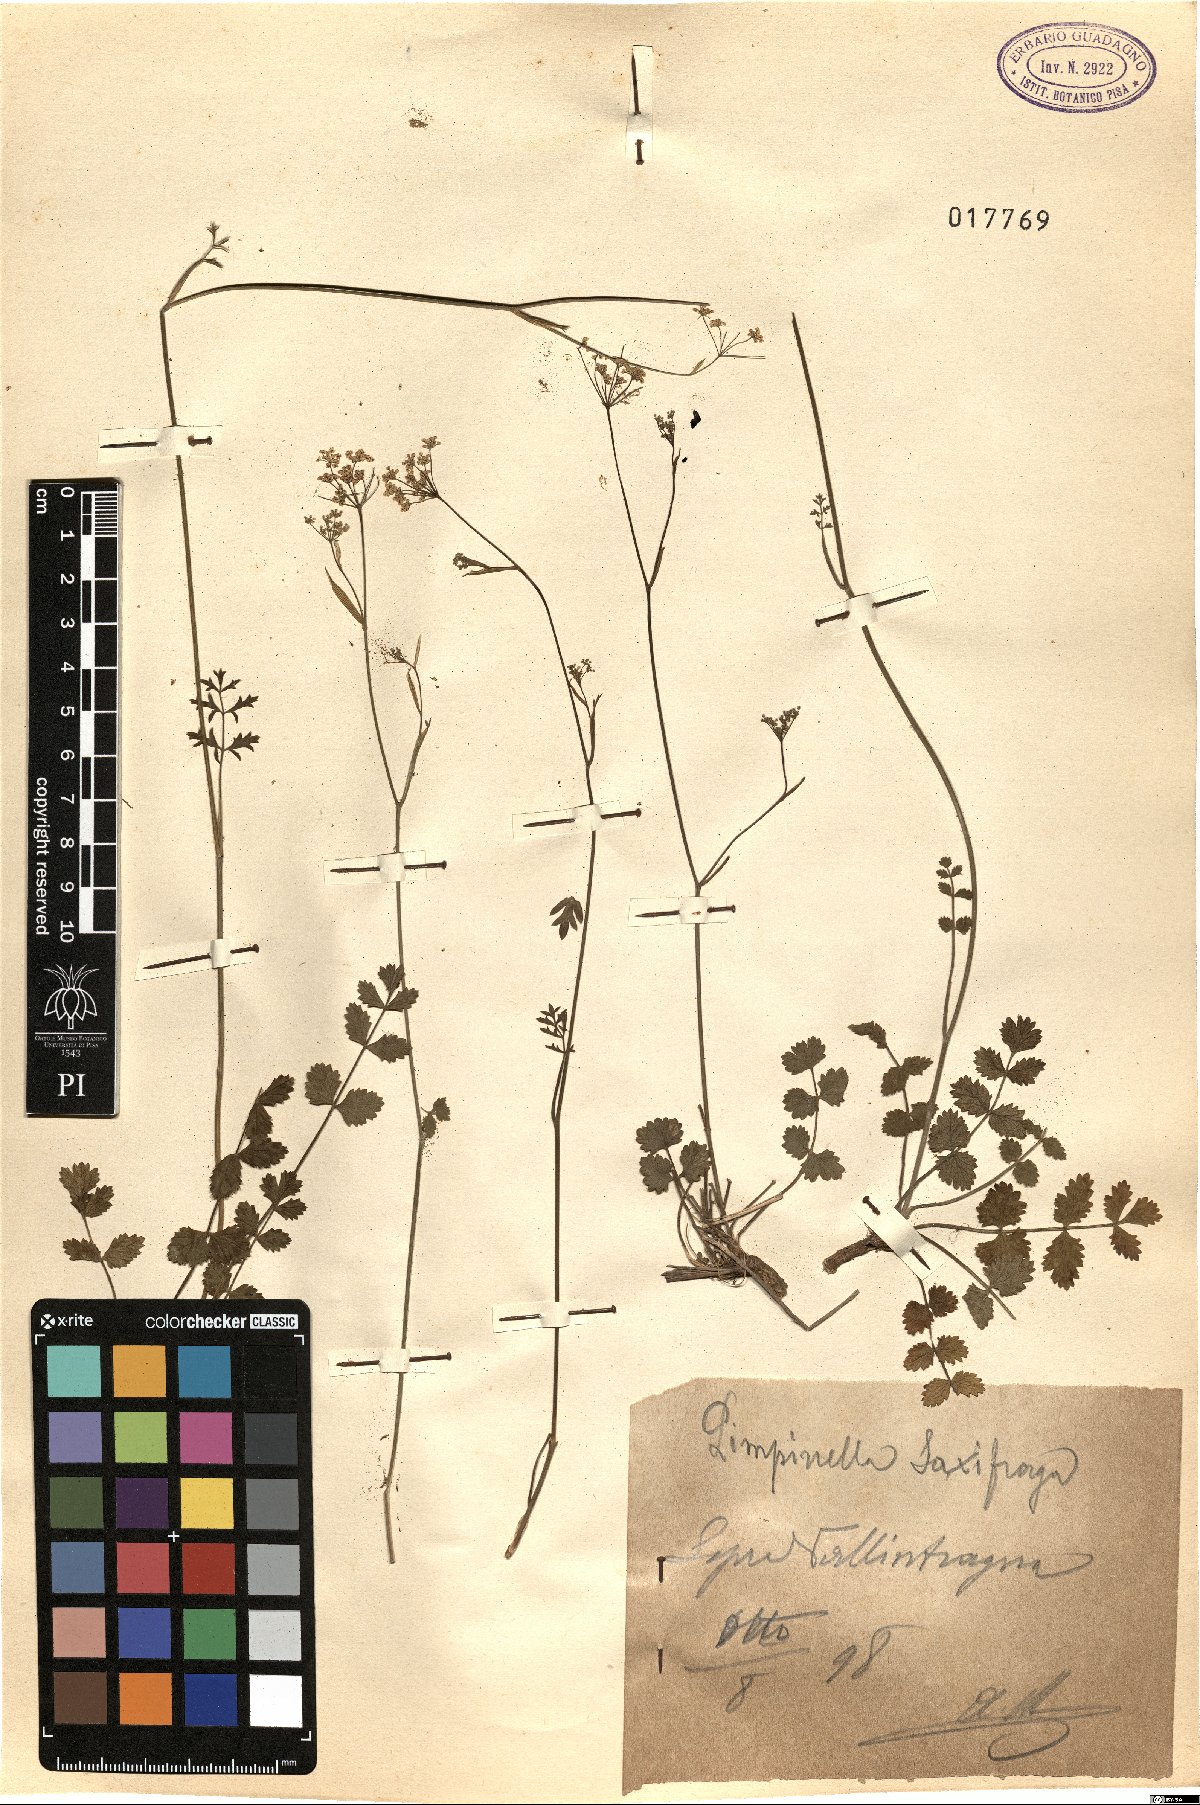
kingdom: Plantae
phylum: Tracheophyta
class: Magnoliopsida
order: Apiales
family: Apiaceae
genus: Pimpinella
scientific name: Pimpinella saxifraga
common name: Burnet-saxifrage
